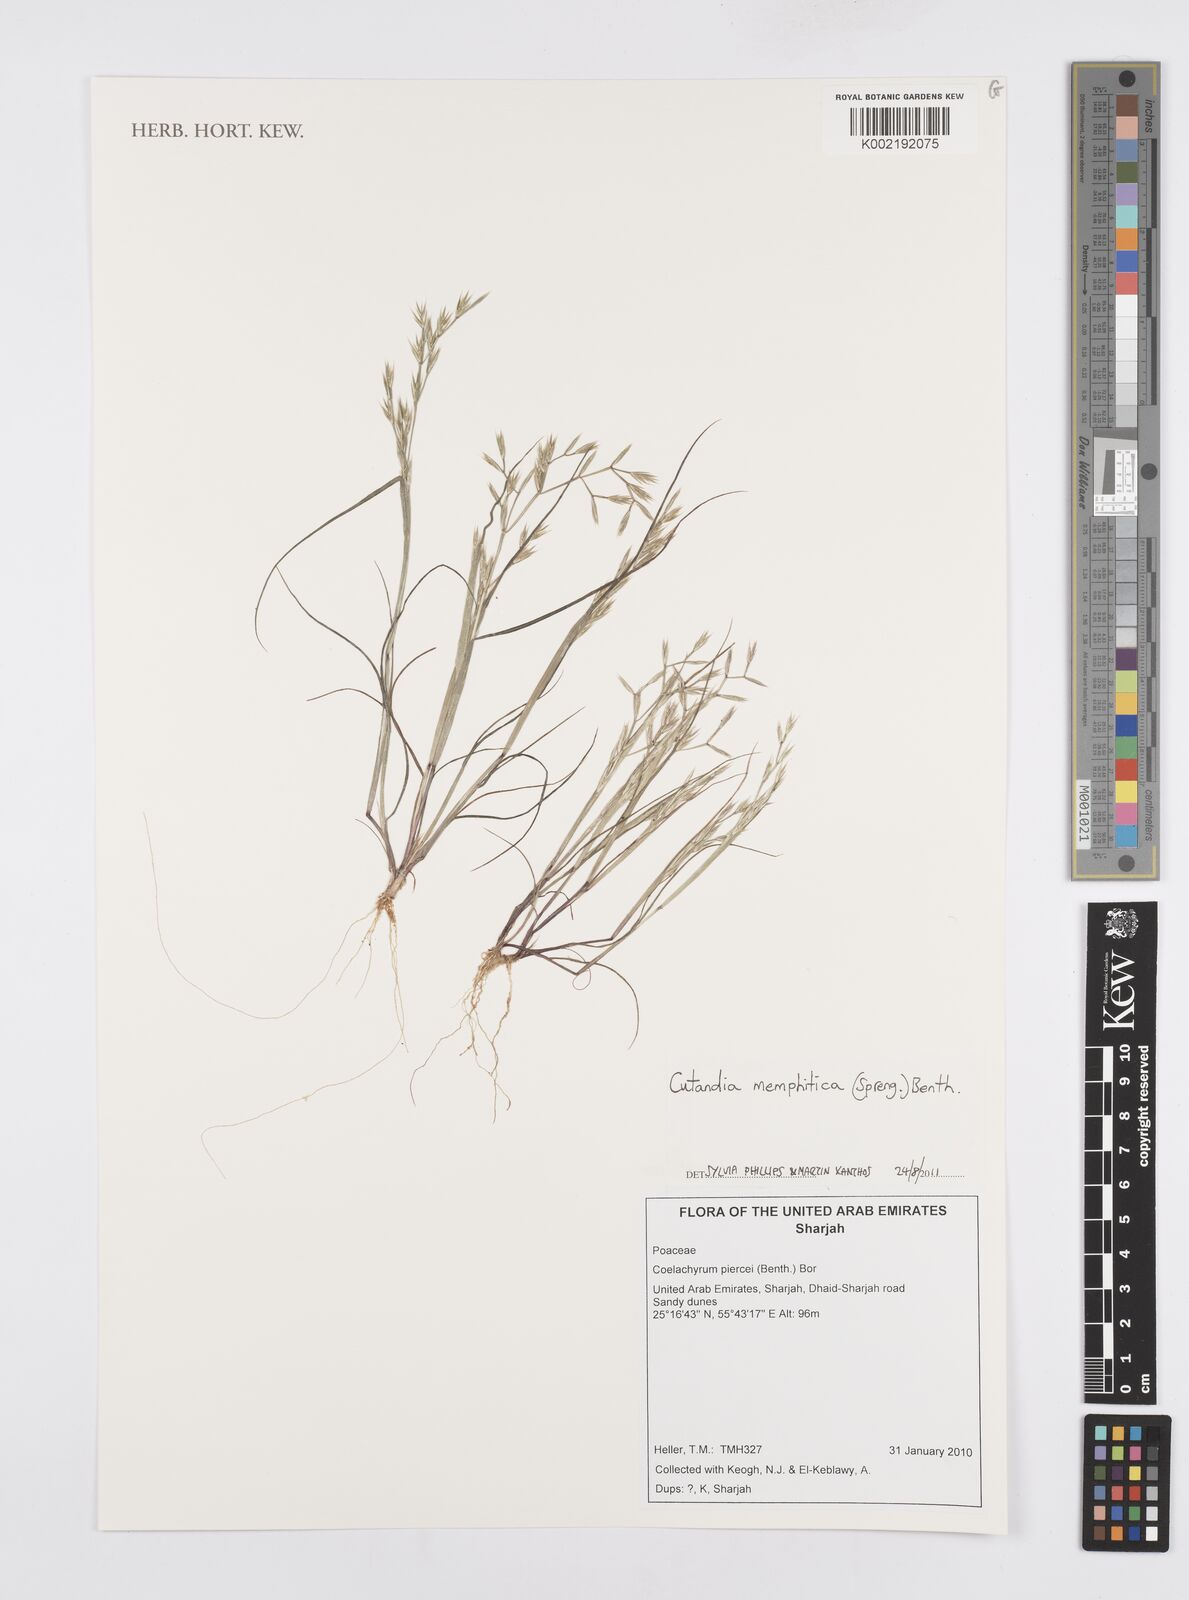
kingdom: Plantae
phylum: Tracheophyta
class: Liliopsida
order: Poales
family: Poaceae
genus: Cutandia
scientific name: Cutandia memphitica
